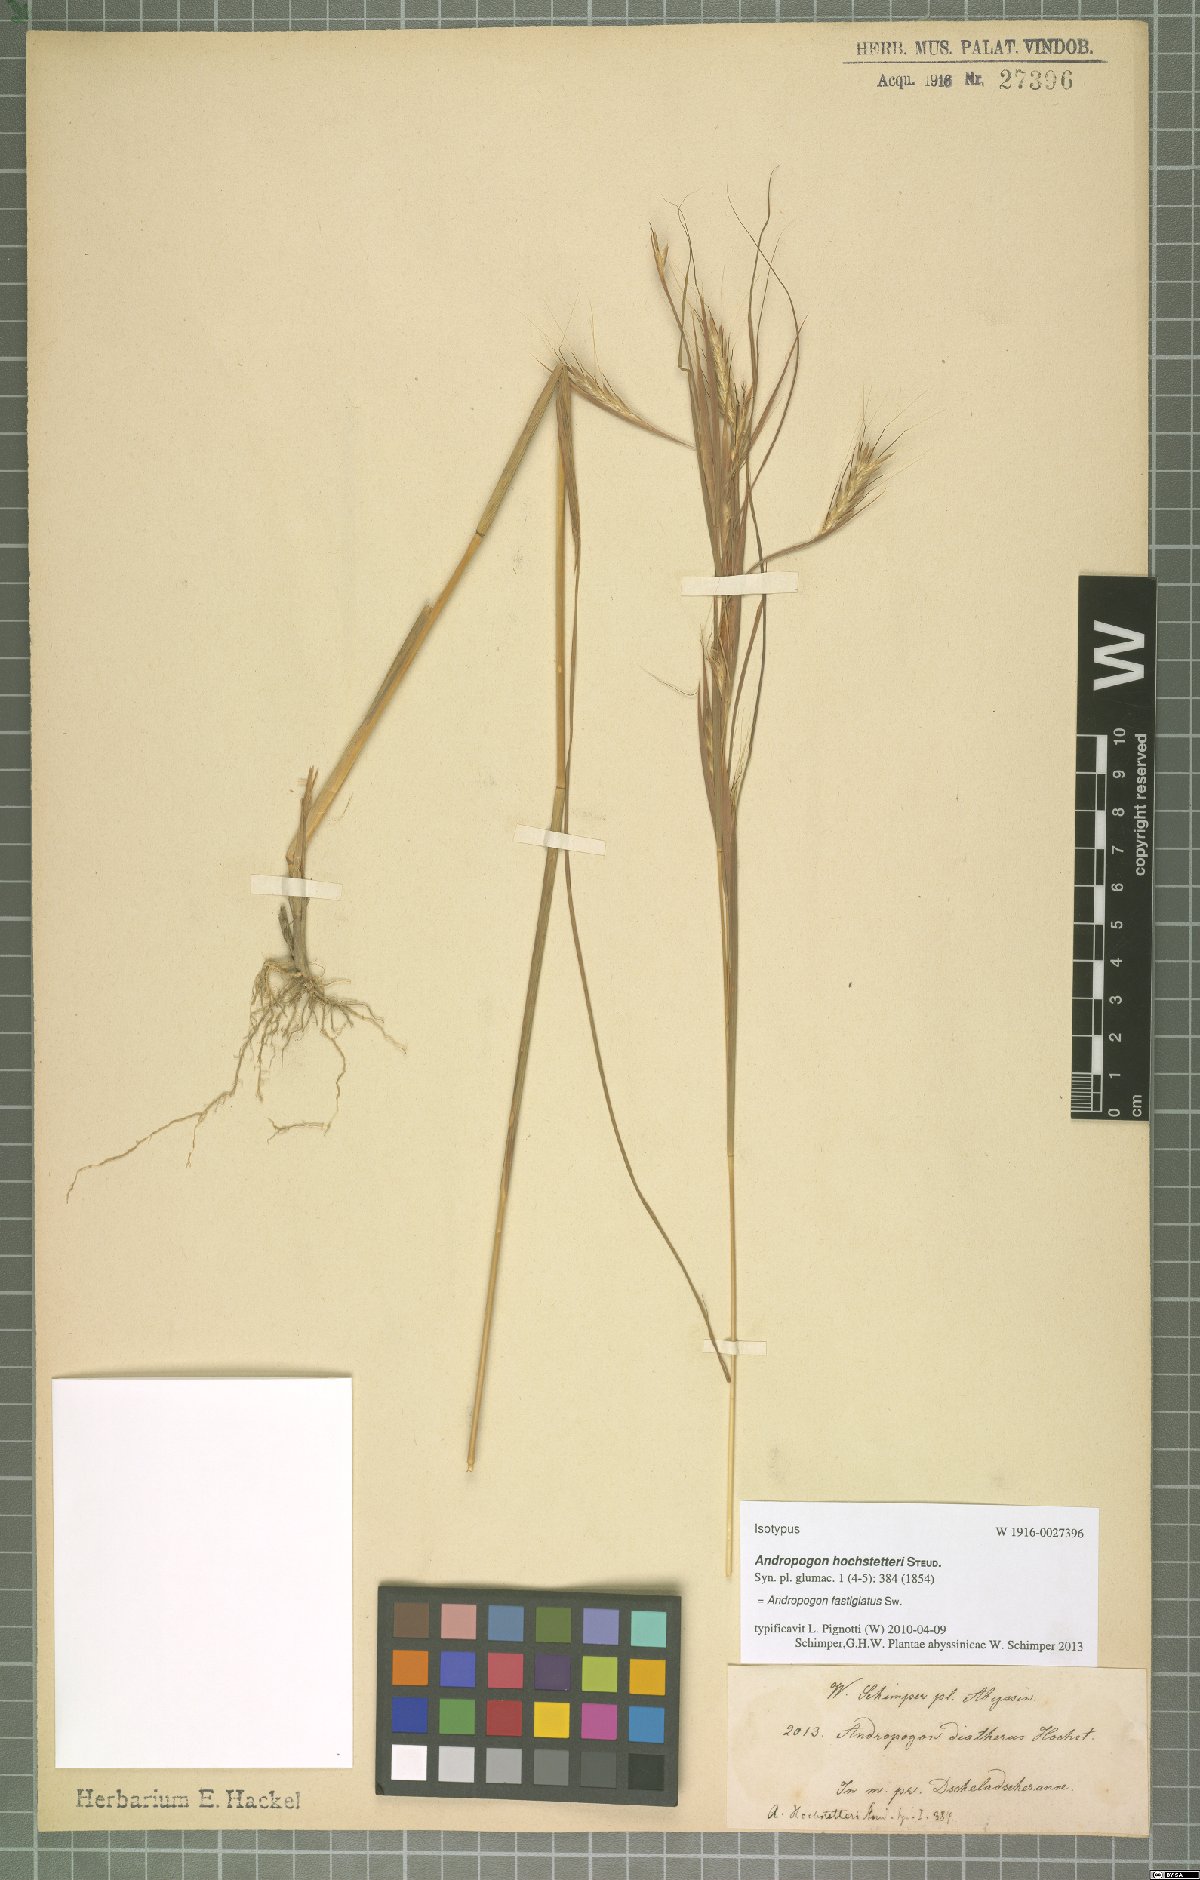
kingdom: Plantae
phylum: Tracheophyta
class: Liliopsida
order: Poales
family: Poaceae
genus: Diectomis
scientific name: Diectomis fastigiata
